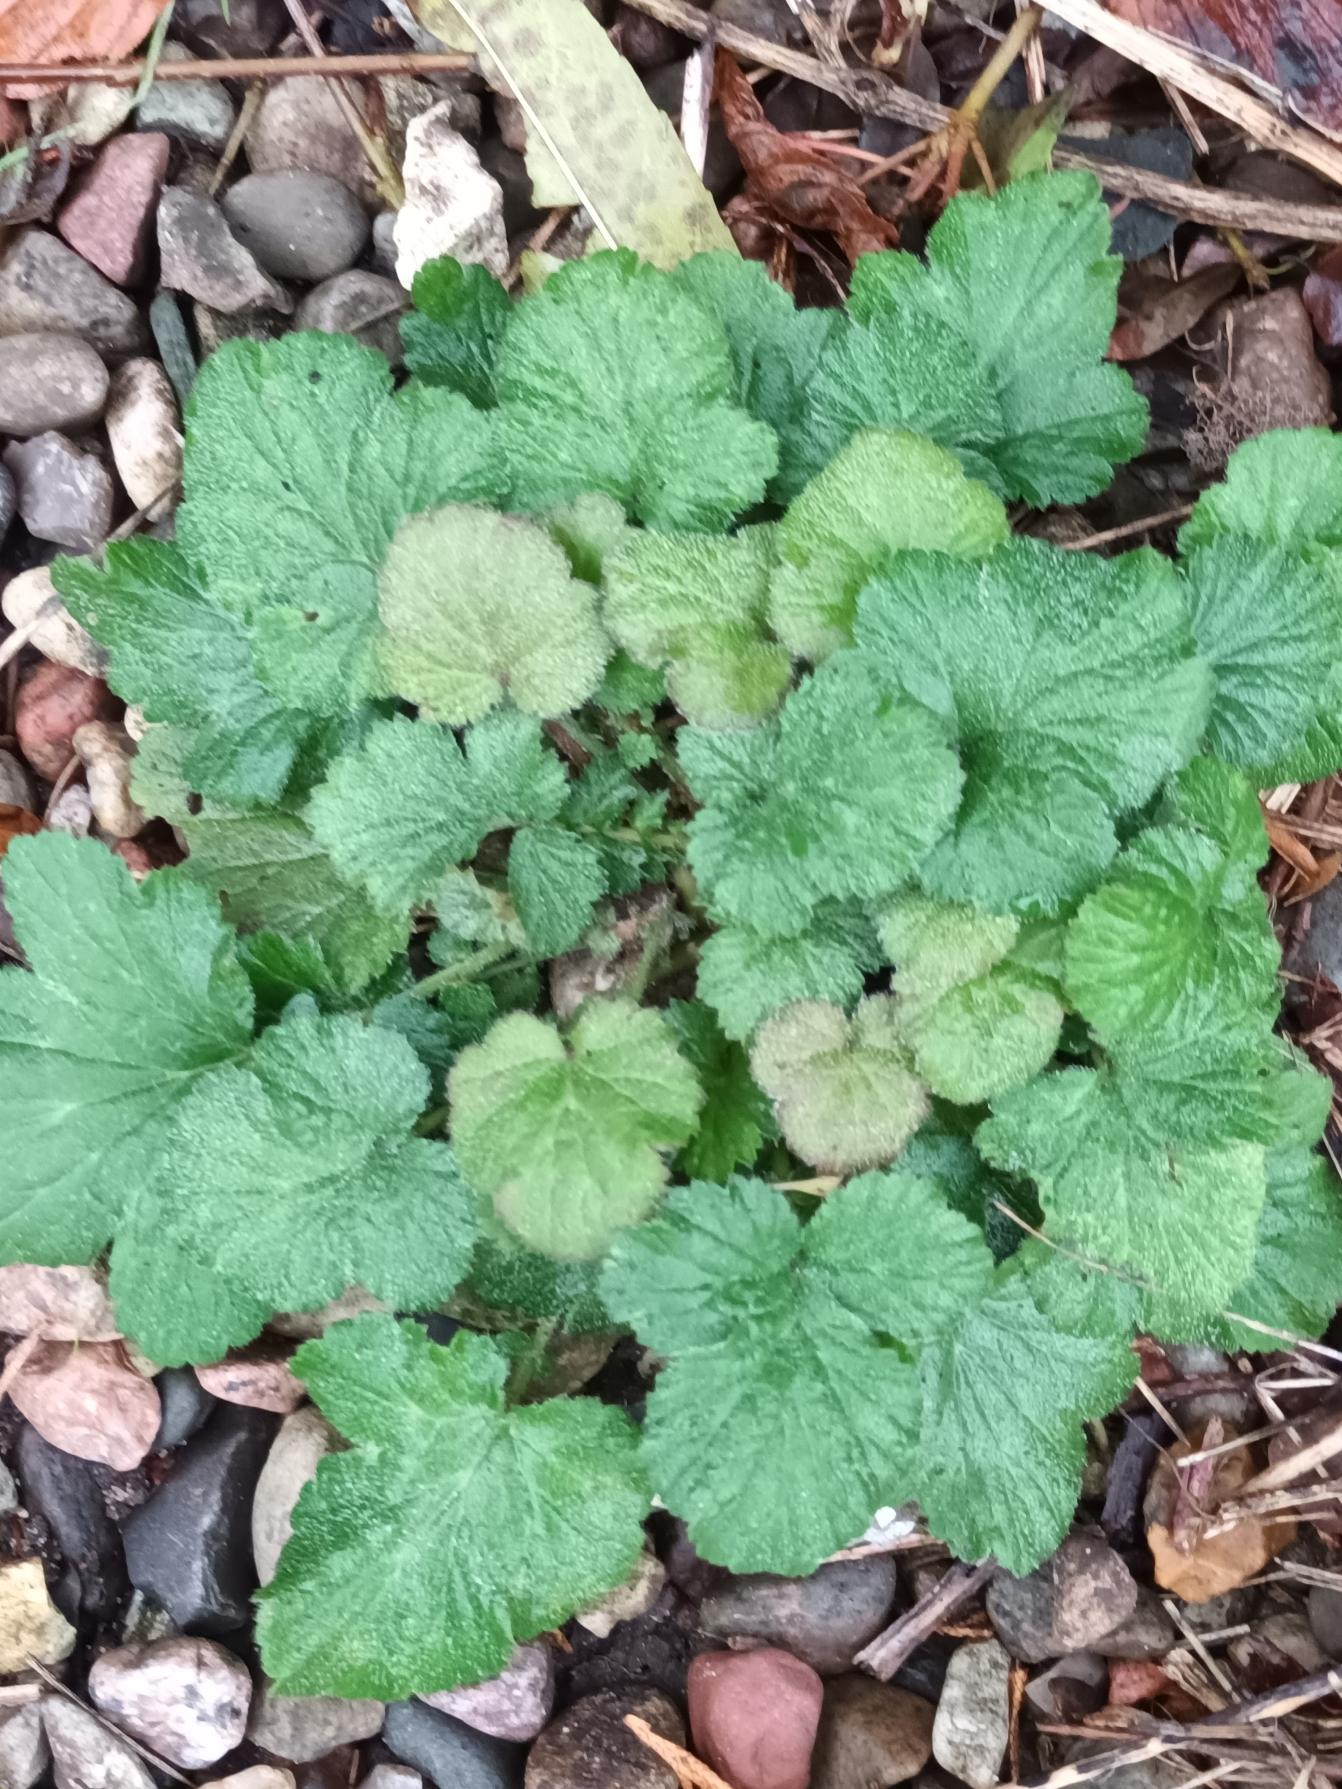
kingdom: Plantae
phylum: Tracheophyta
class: Magnoliopsida
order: Rosales
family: Rosaceae
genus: Geum
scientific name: Geum urbanum
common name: Feber-nellikerod
